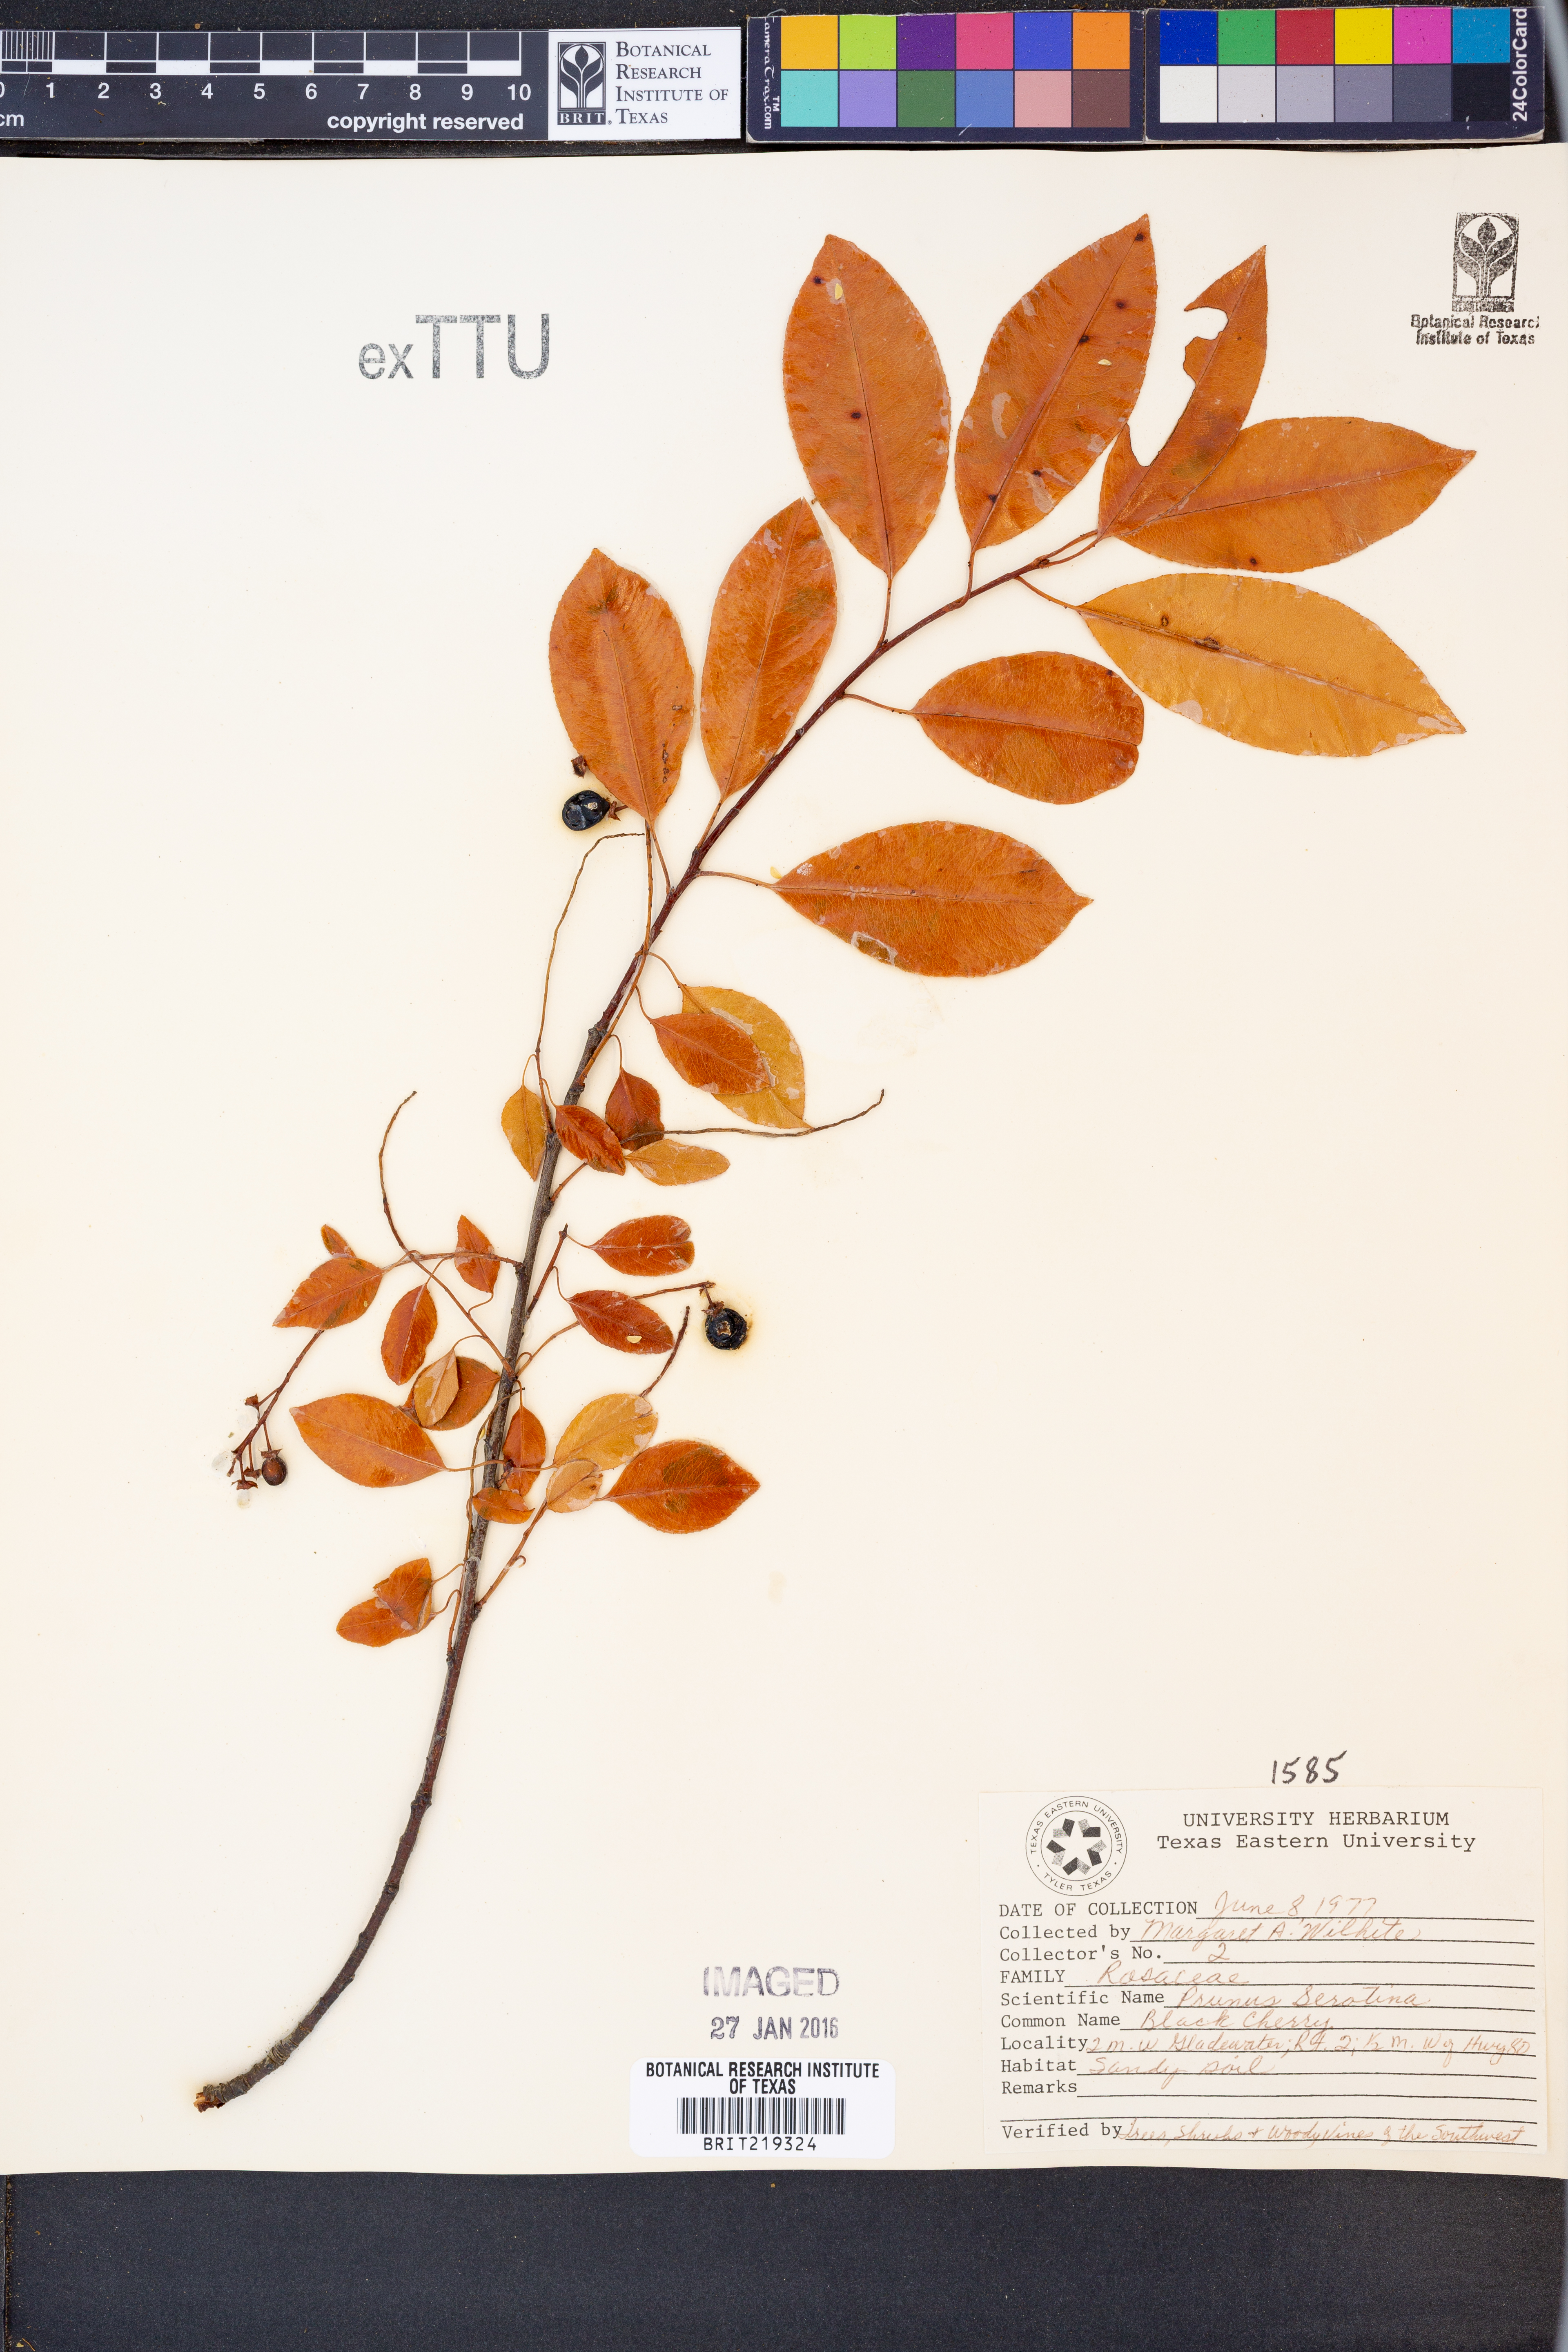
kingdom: Plantae
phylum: Tracheophyta
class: Magnoliopsida
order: Rosales
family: Rosaceae
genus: Prunus
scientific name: Prunus serotina
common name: Black cherry
